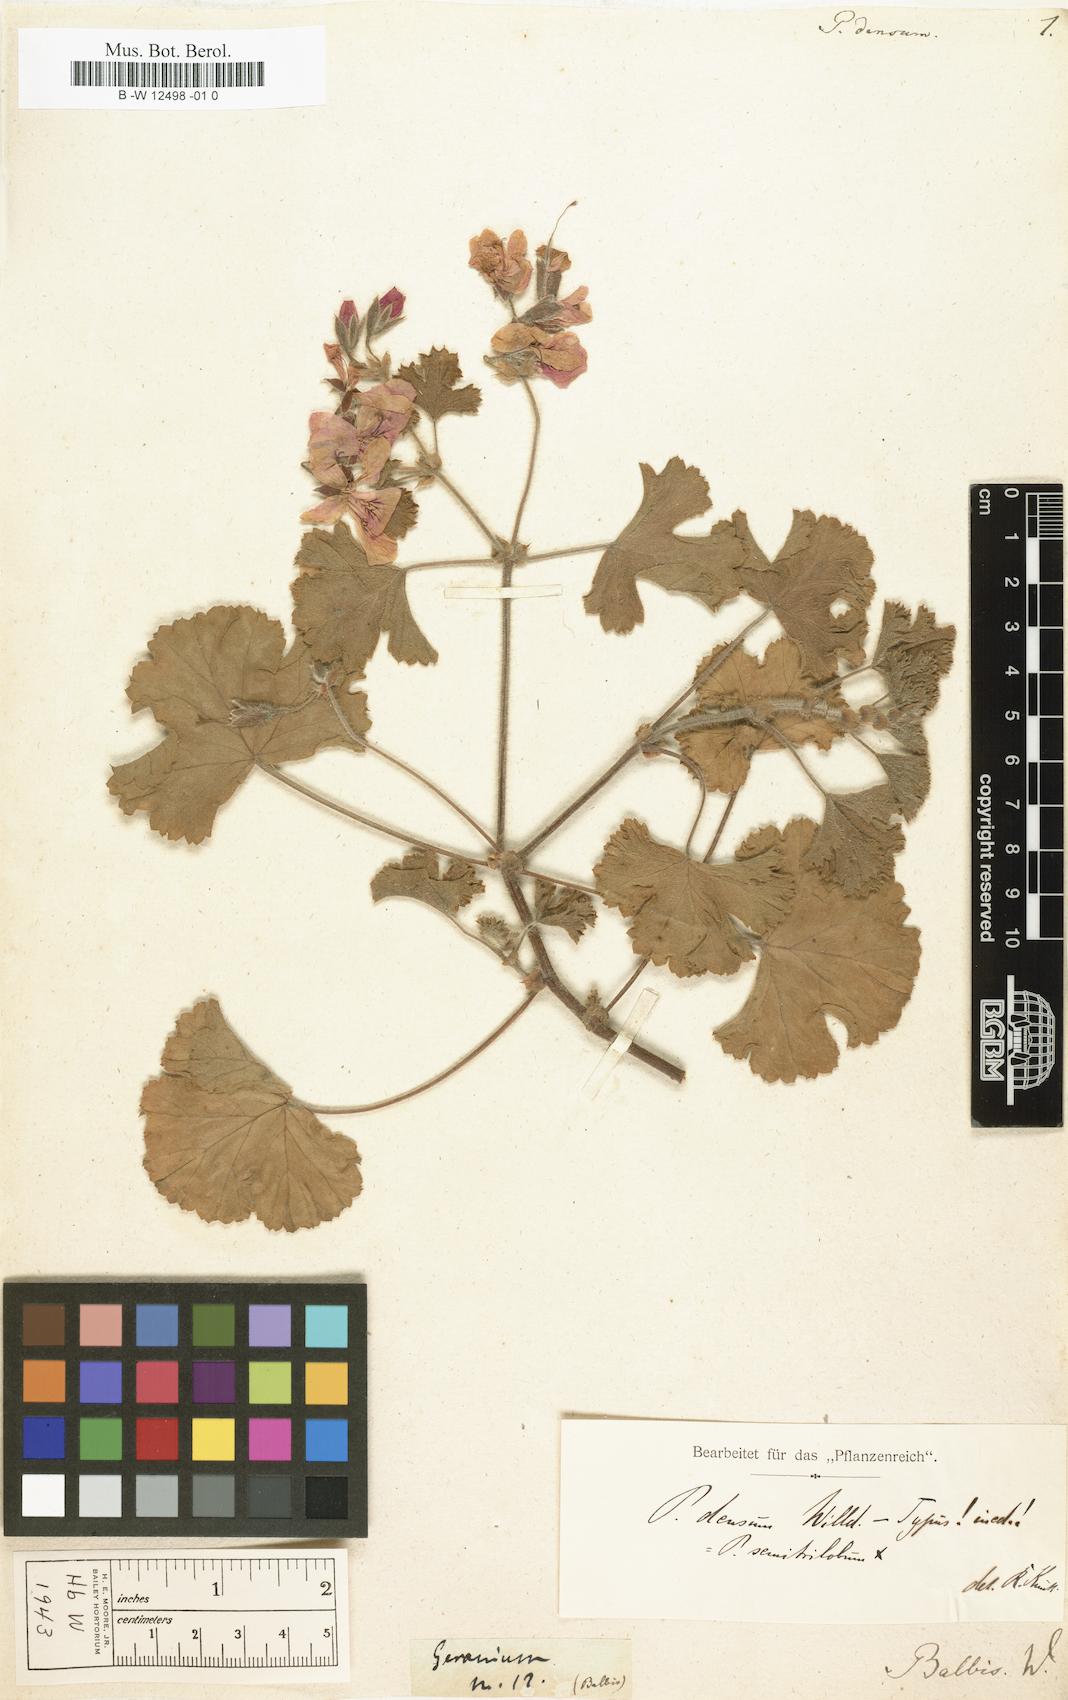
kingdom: Plantae
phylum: Tracheophyta
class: Magnoliopsida
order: Geraniales
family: Geraniaceae
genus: Pelargonium
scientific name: Pelargonium
